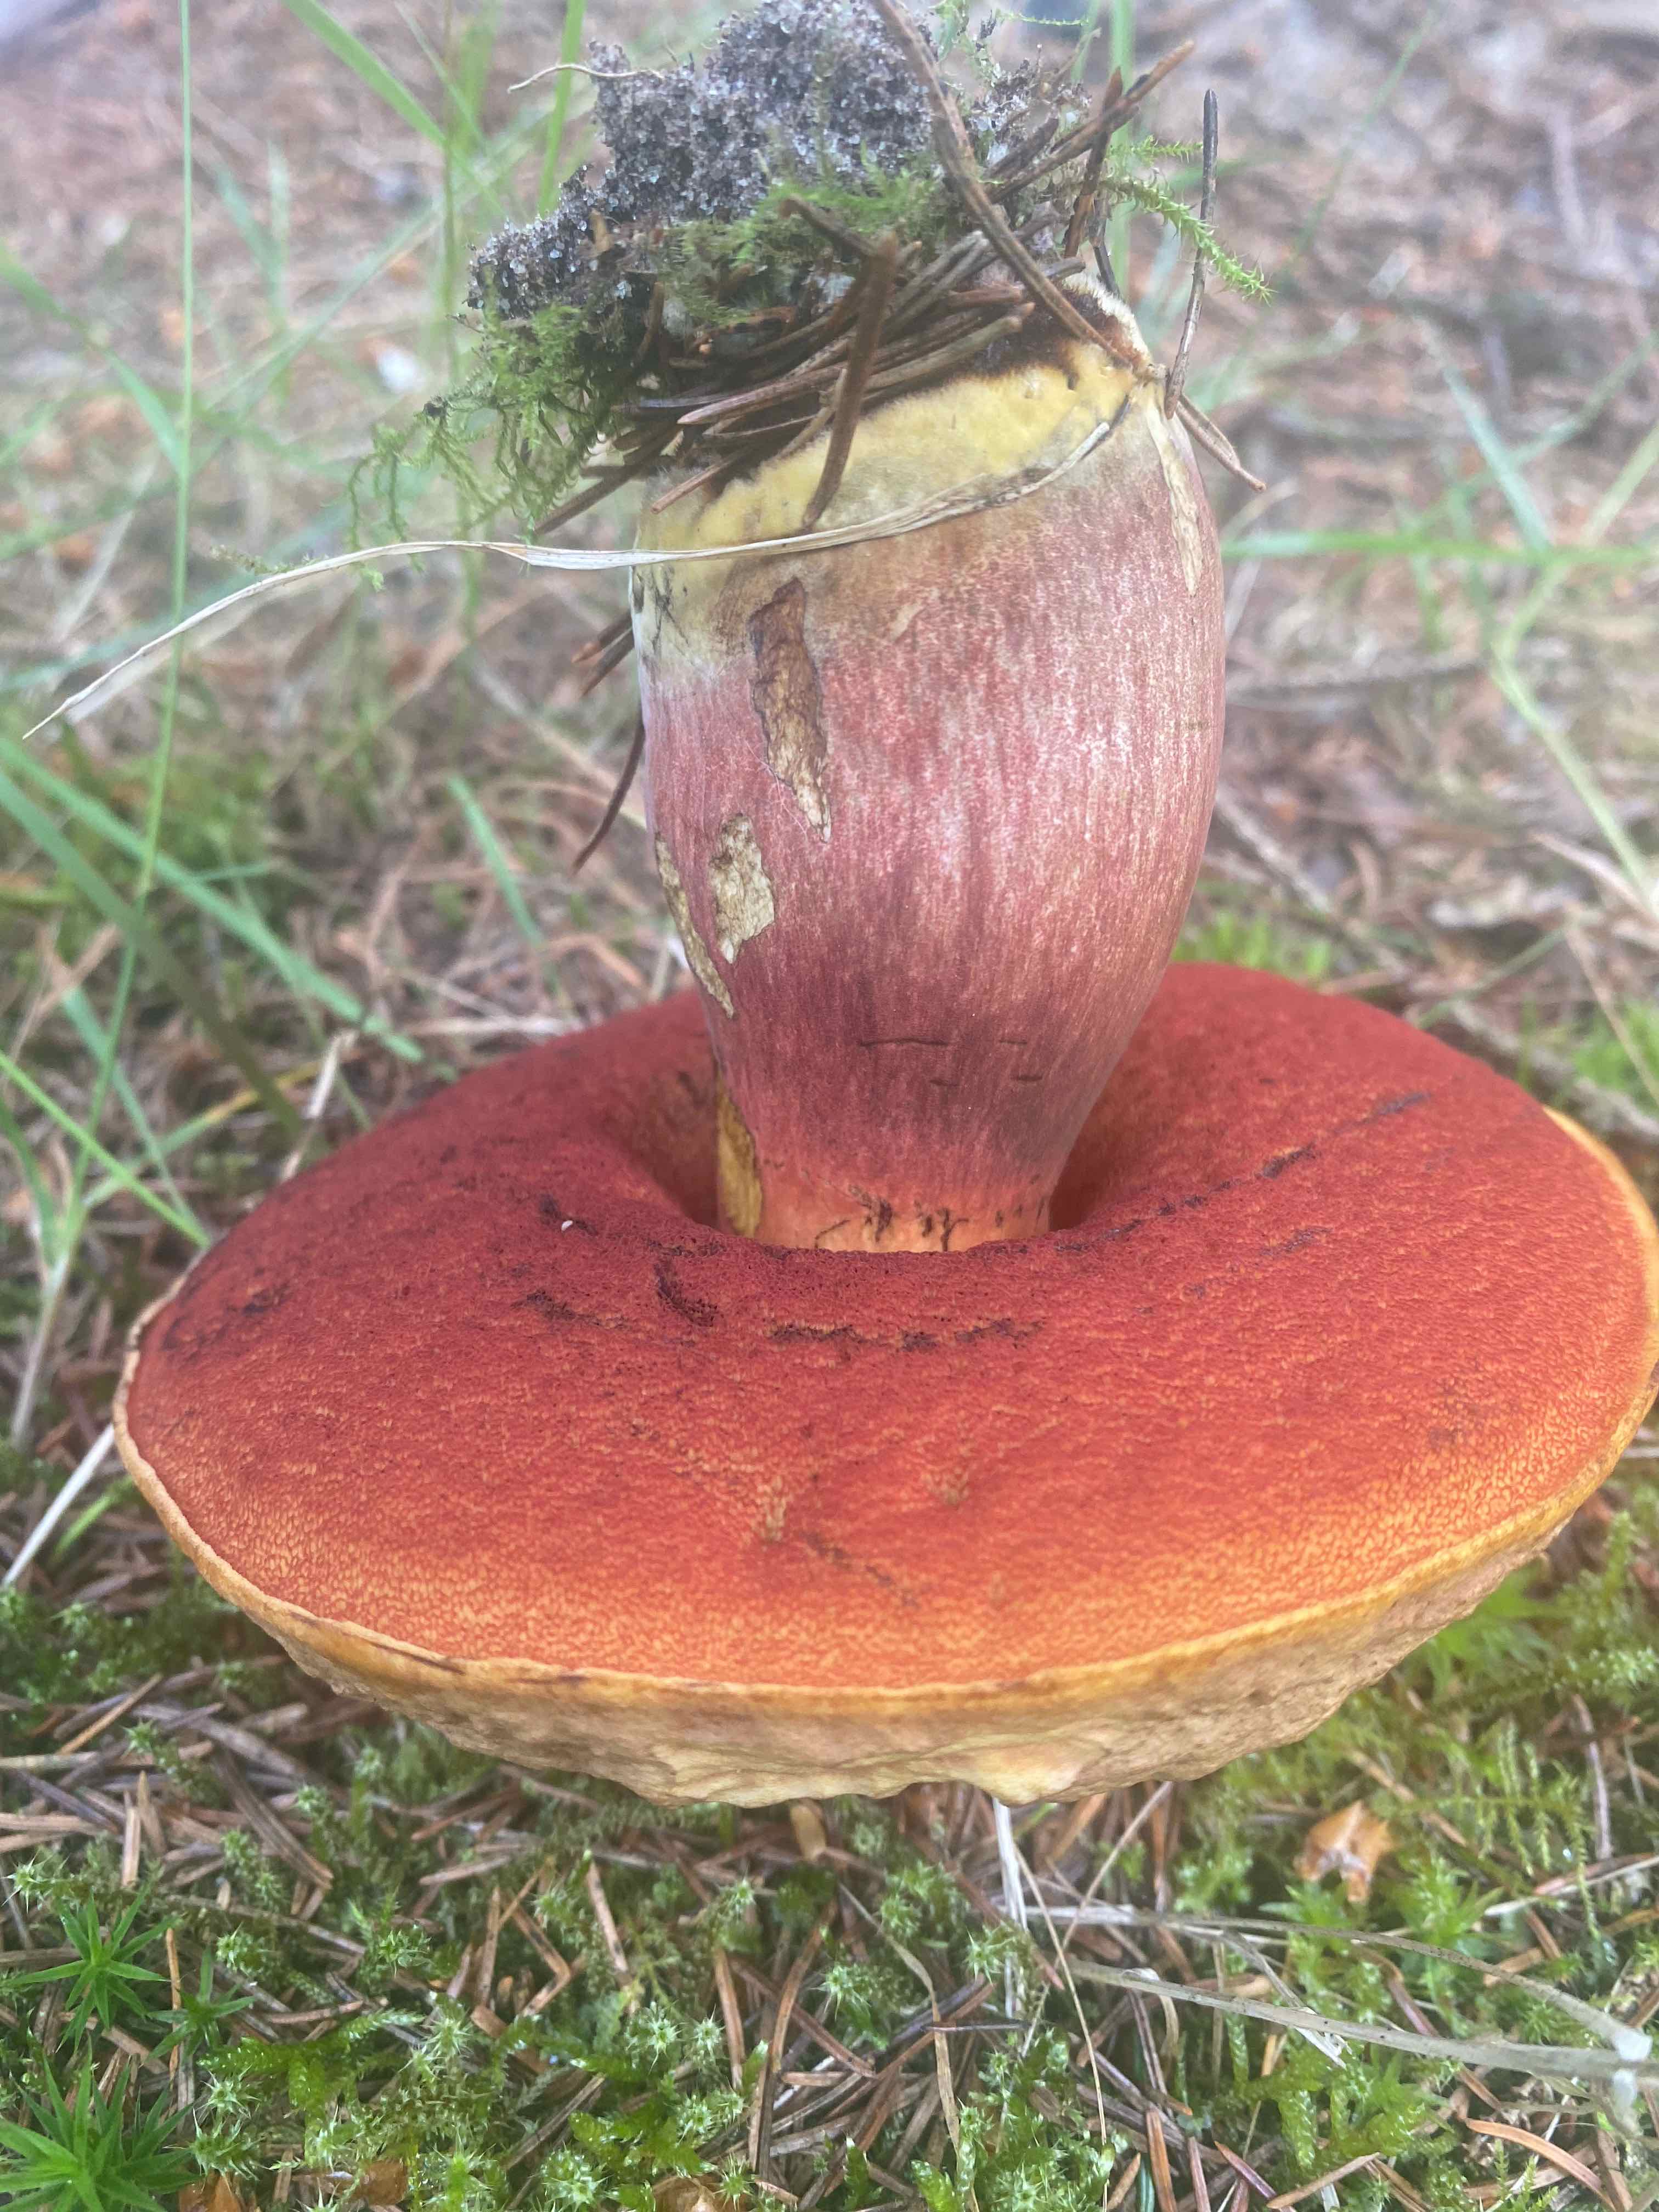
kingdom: Fungi
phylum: Basidiomycota
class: Agaricomycetes
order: Boletales
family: Boletaceae
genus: Neoboletus
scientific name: Neoboletus erythropus
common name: punktstokket indigorørhat
